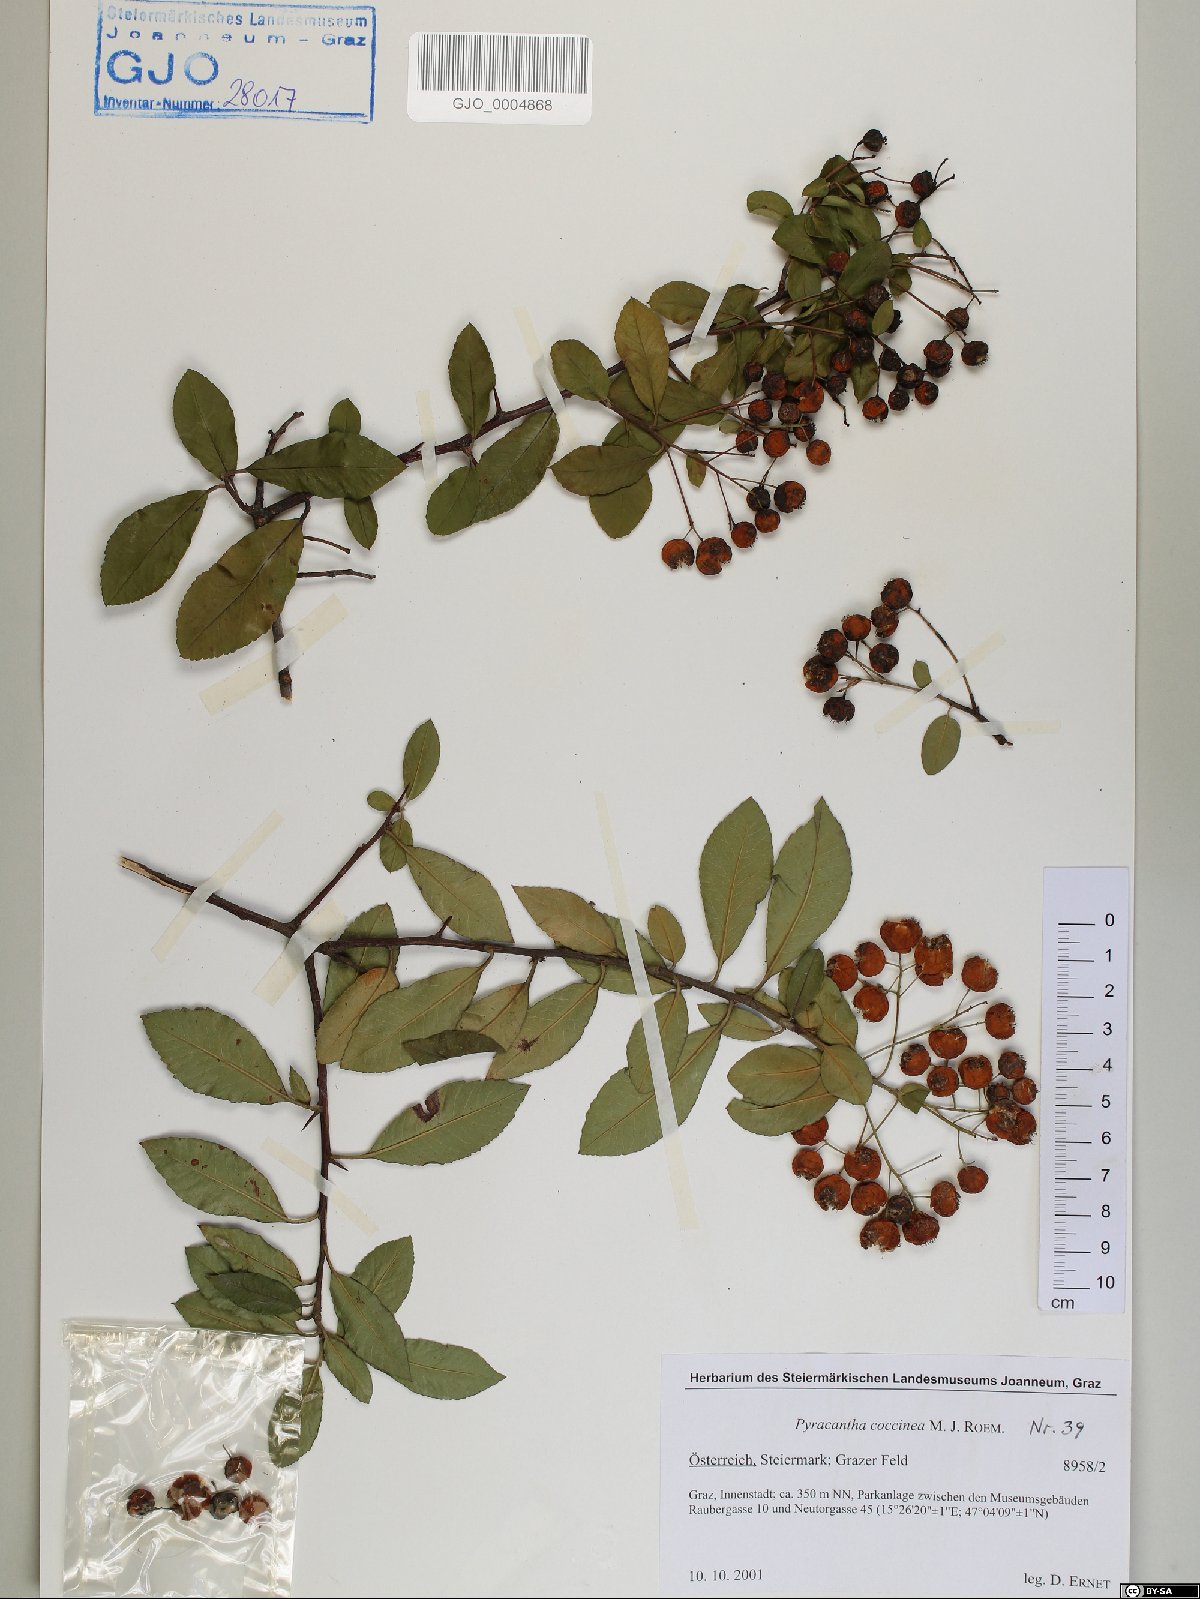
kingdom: Plantae
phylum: Tracheophyta
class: Magnoliopsida
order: Rosales
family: Rosaceae
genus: Pyracantha
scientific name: Pyracantha coccinea
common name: Firethorn
